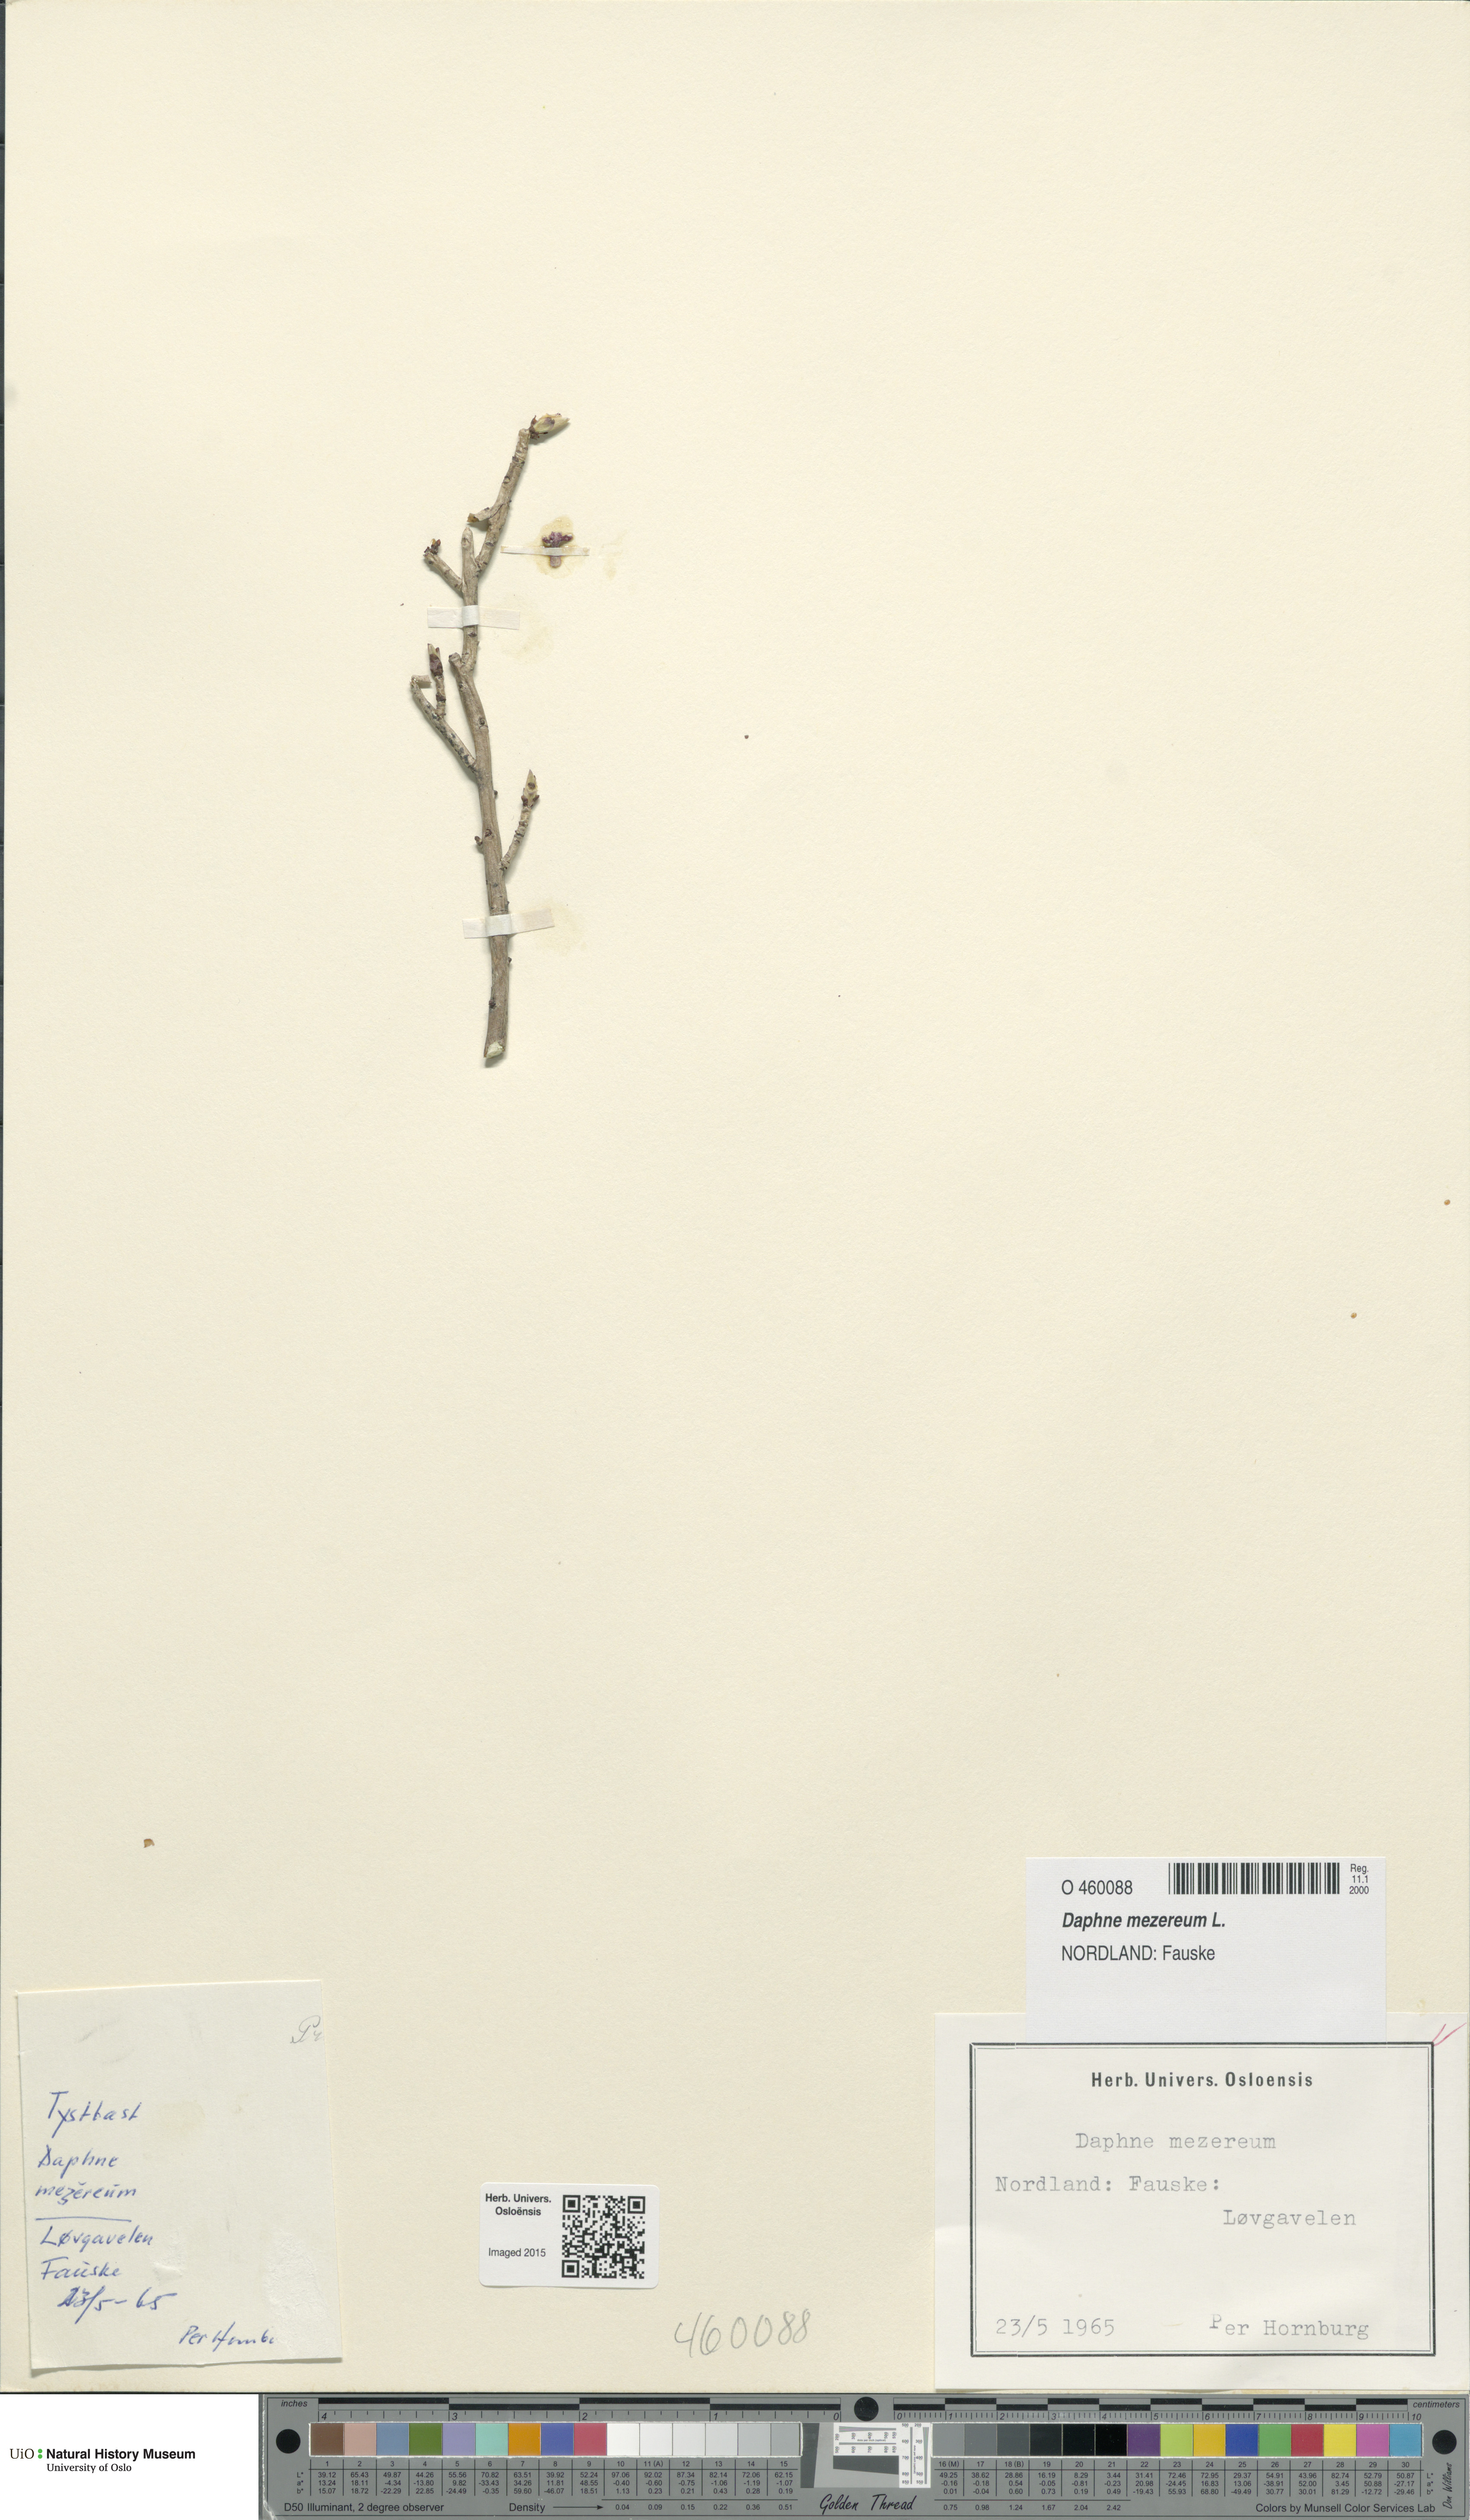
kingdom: Plantae
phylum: Tracheophyta
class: Magnoliopsida
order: Malvales
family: Thymelaeaceae
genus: Daphne
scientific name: Daphne mezereum
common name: Mezereon
